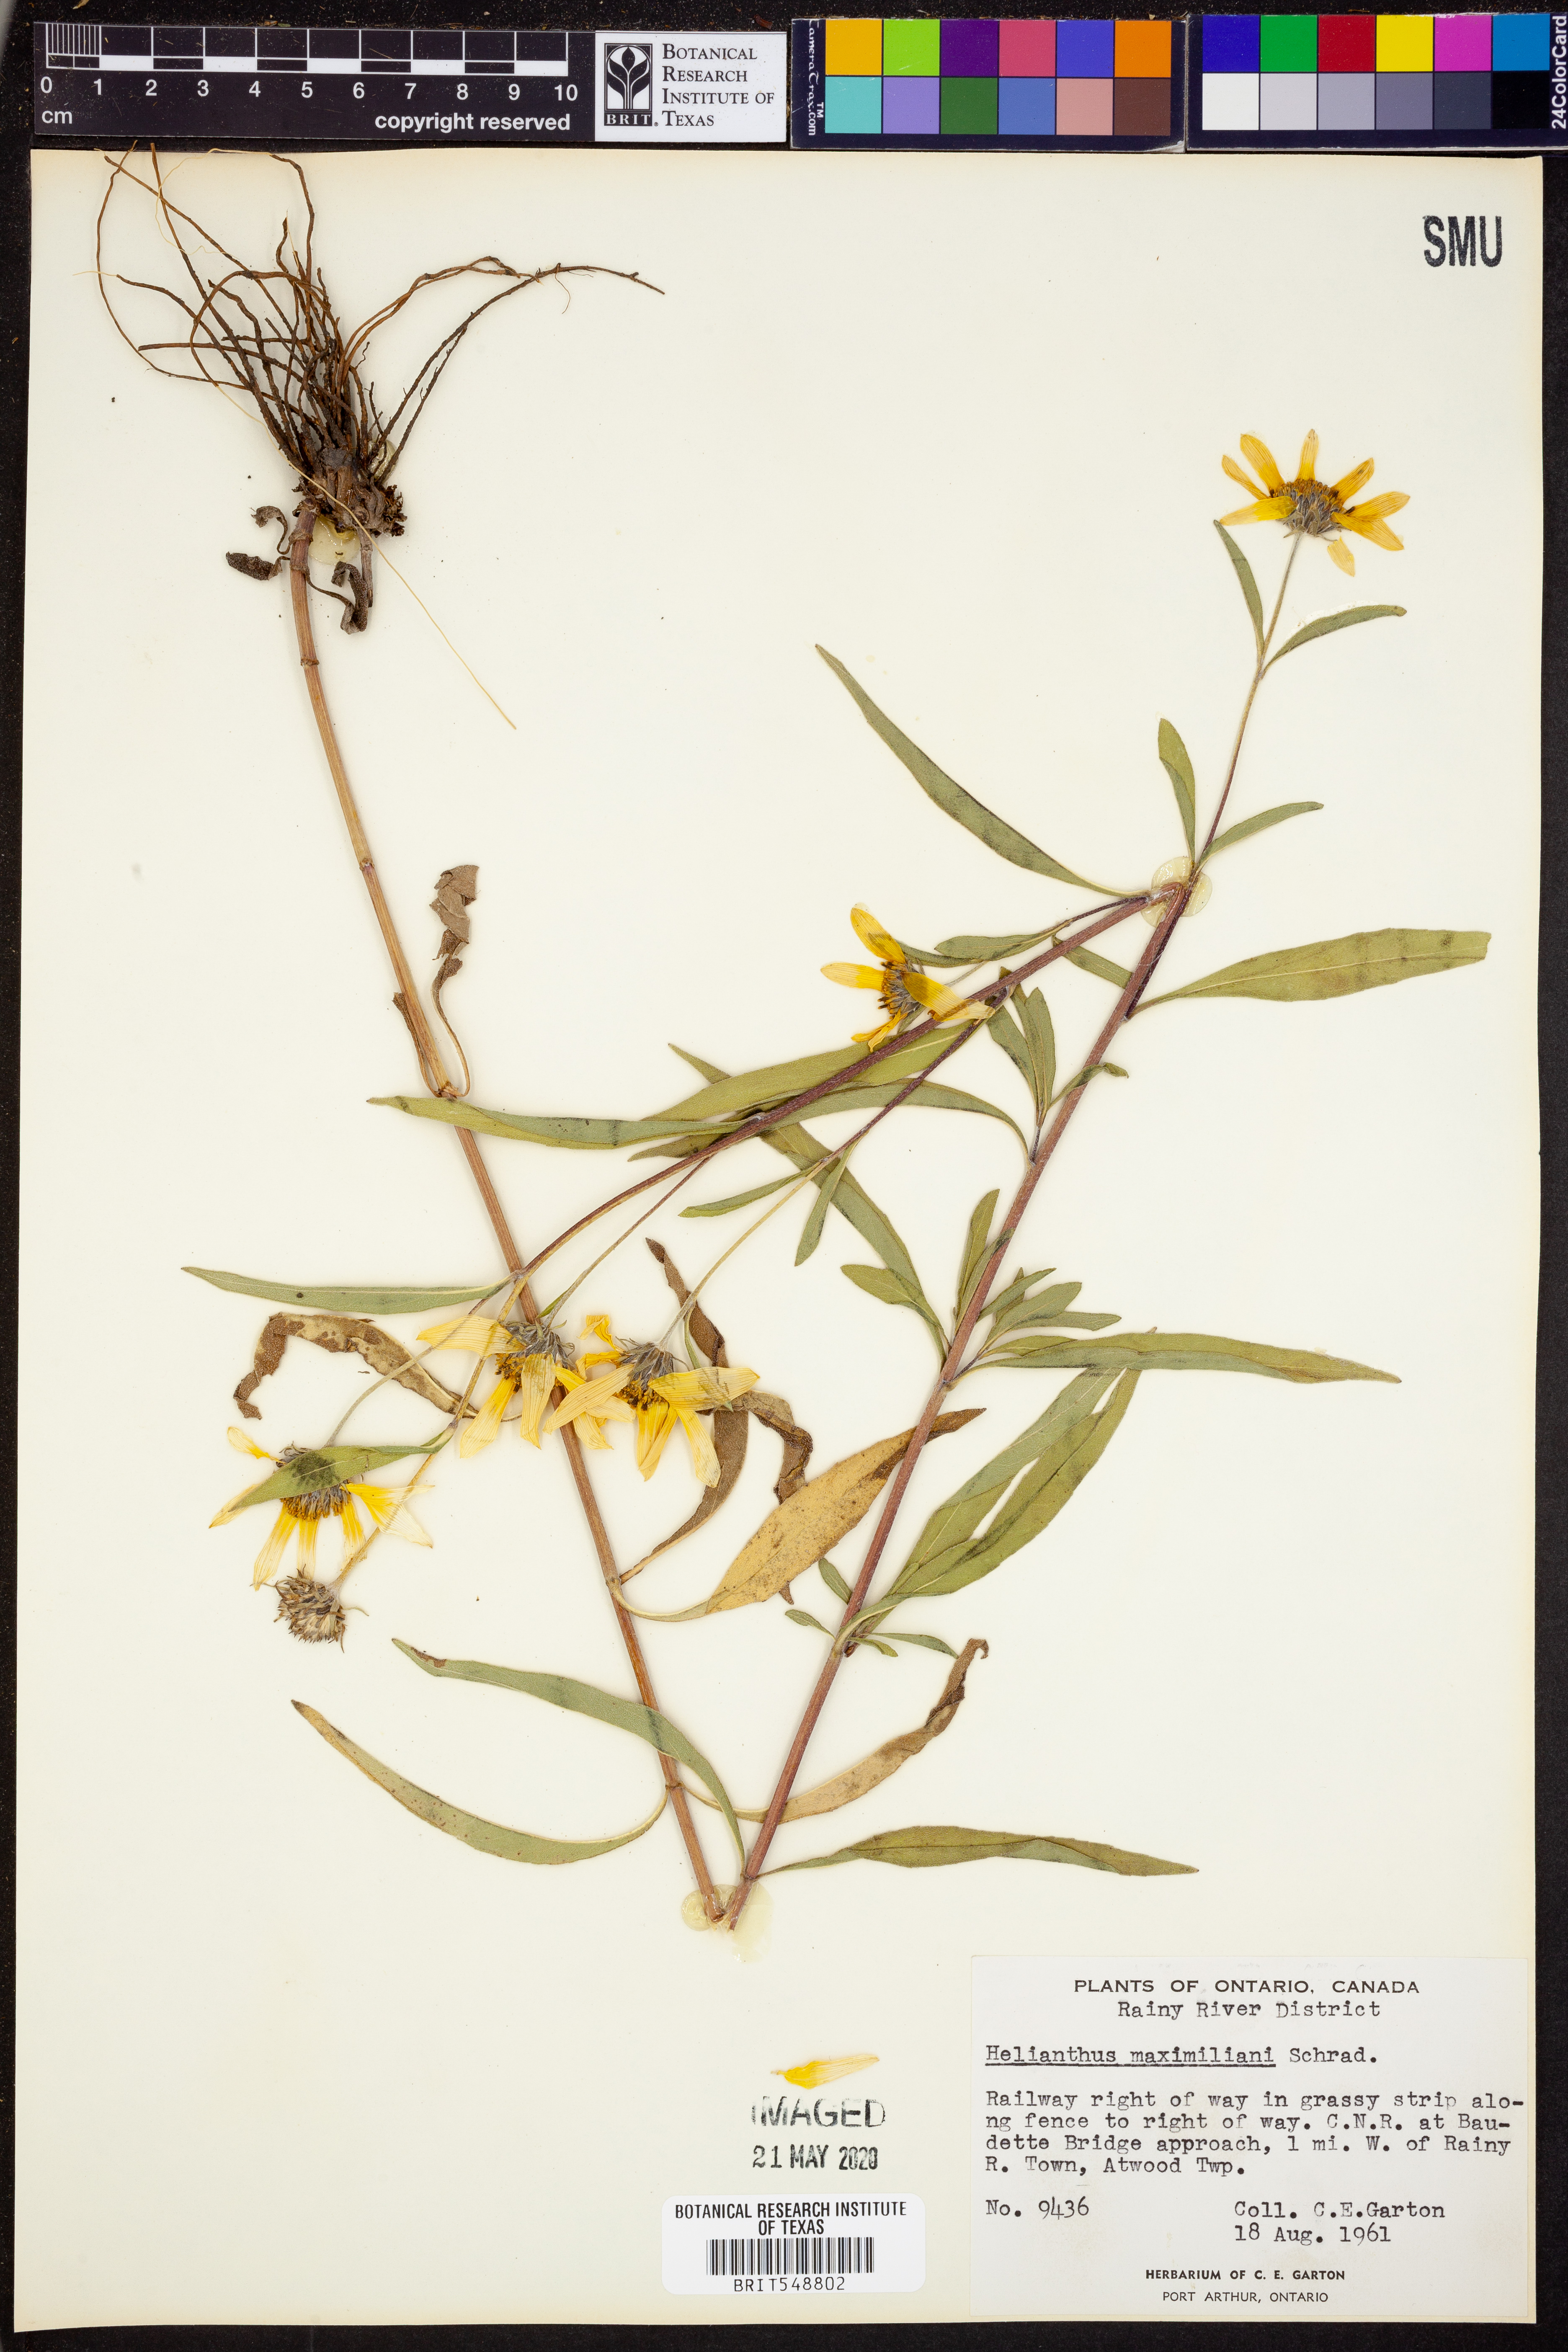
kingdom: Plantae
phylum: Tracheophyta
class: Magnoliopsida
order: Asterales
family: Asteraceae
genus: Helianthus
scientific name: Helianthus maximiliani
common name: Maximilian's sunflower
